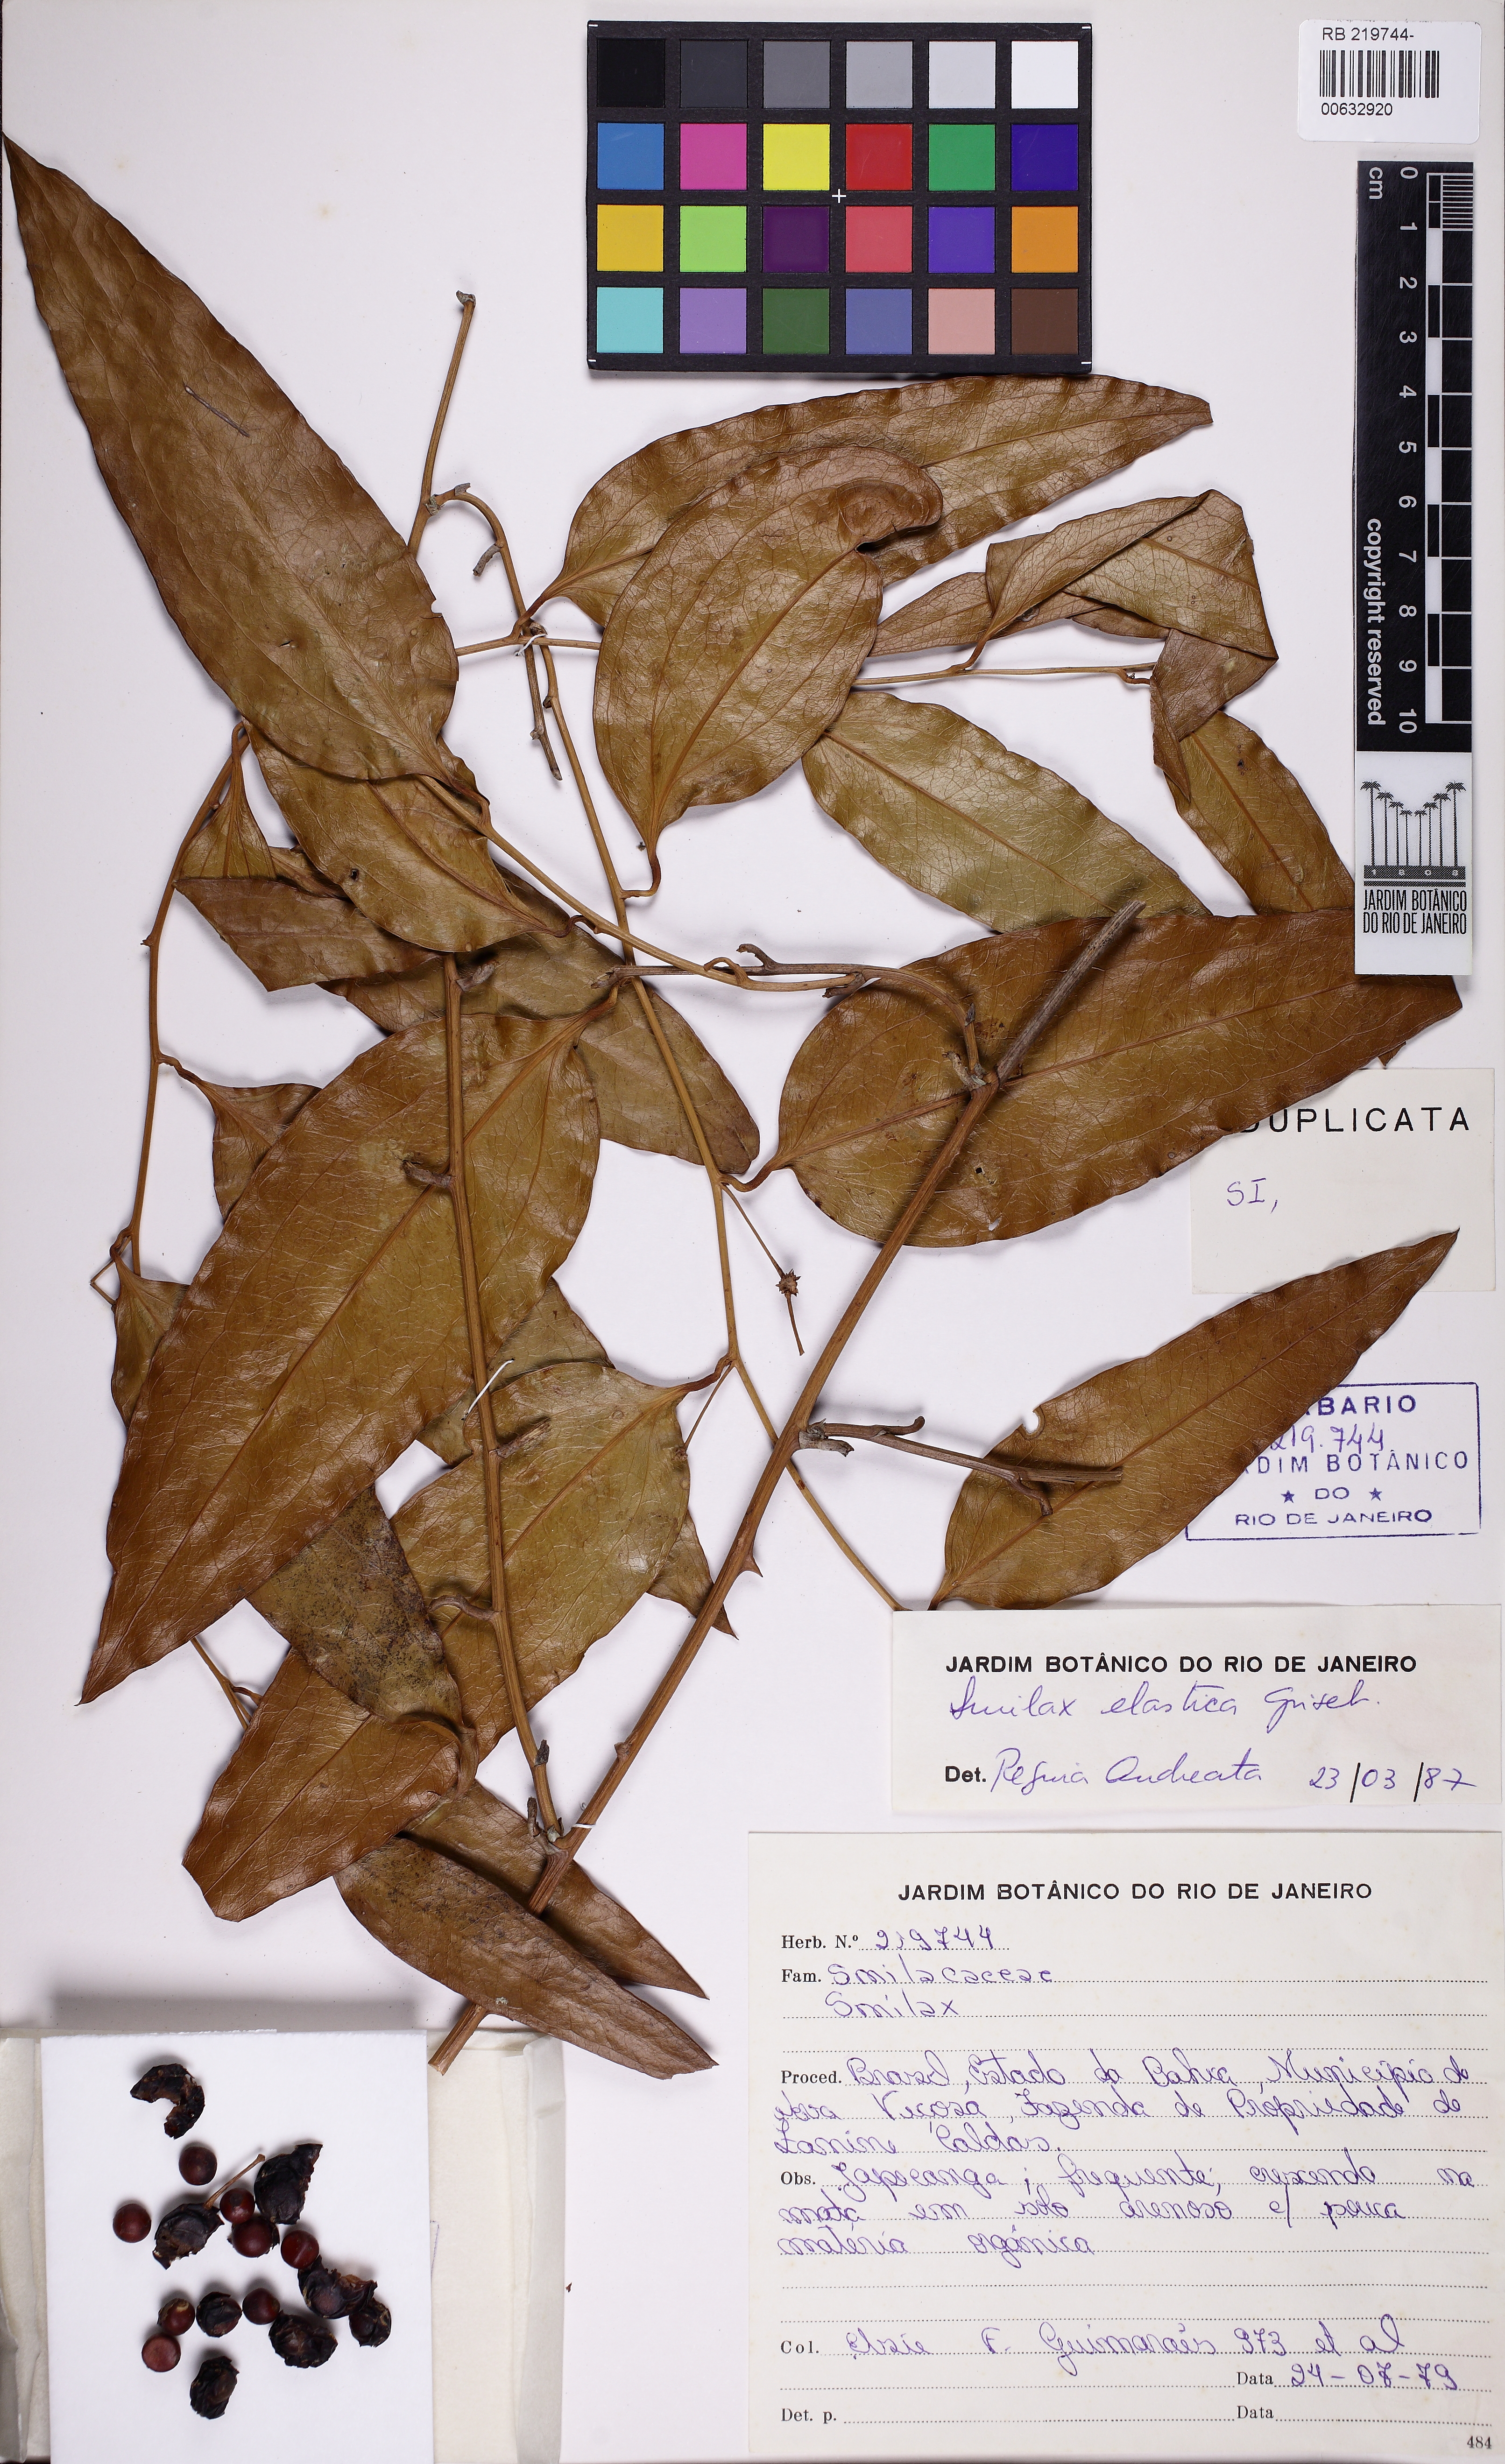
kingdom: Plantae
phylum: Tracheophyta
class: Liliopsida
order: Liliales
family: Smilacaceae
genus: Smilax
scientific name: Smilax elastica
